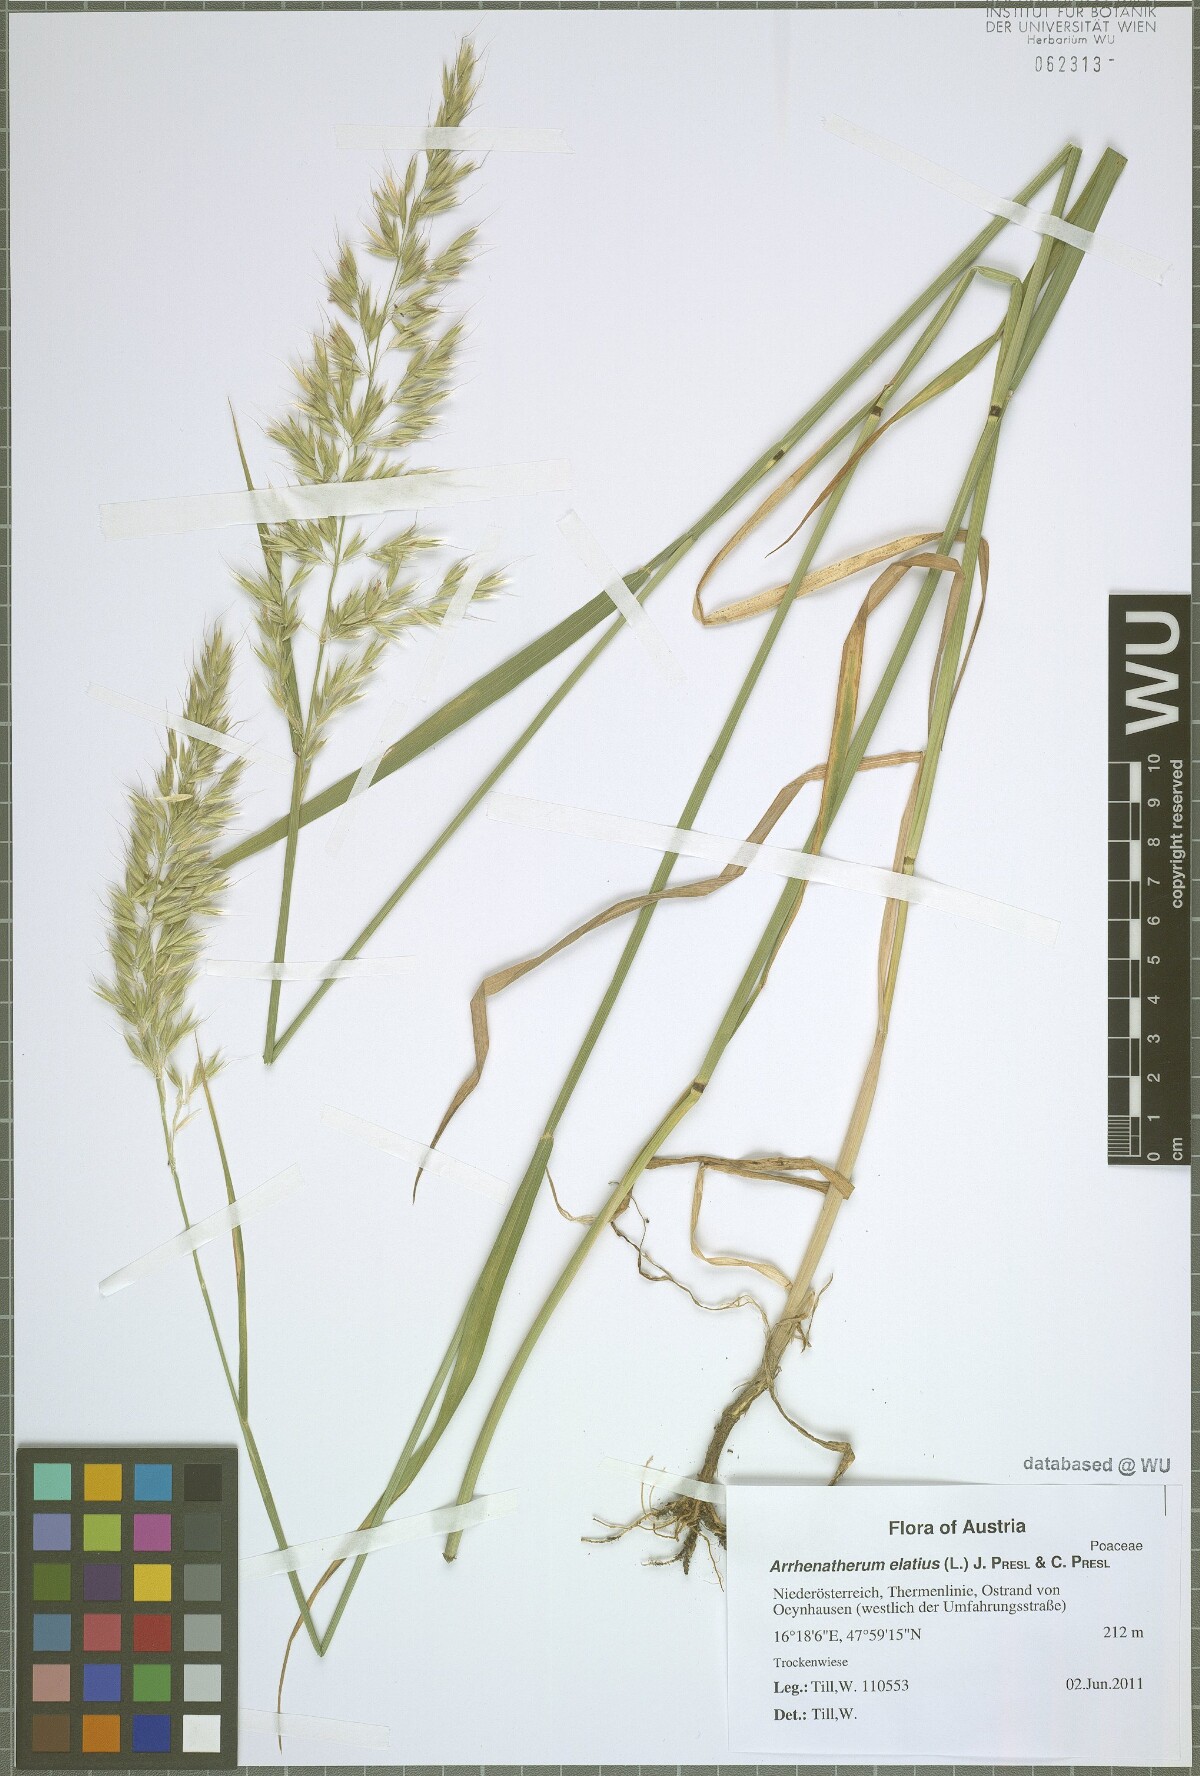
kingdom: Plantae
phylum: Tracheophyta
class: Liliopsida
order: Poales
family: Poaceae
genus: Arrhenatherum
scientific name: Arrhenatherum elatius
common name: Tall oatgrass
